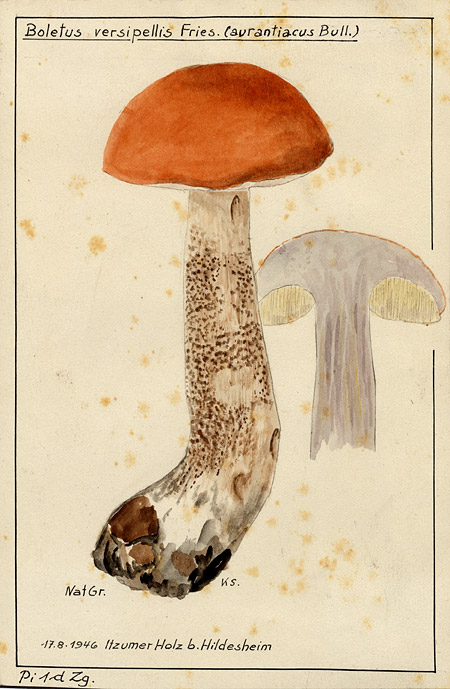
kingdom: Fungi
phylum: Basidiomycota
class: Agaricomycetes
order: Boletales
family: Boletaceae
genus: Leccinum
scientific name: Leccinum versipelle
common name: Orange birch bolete
